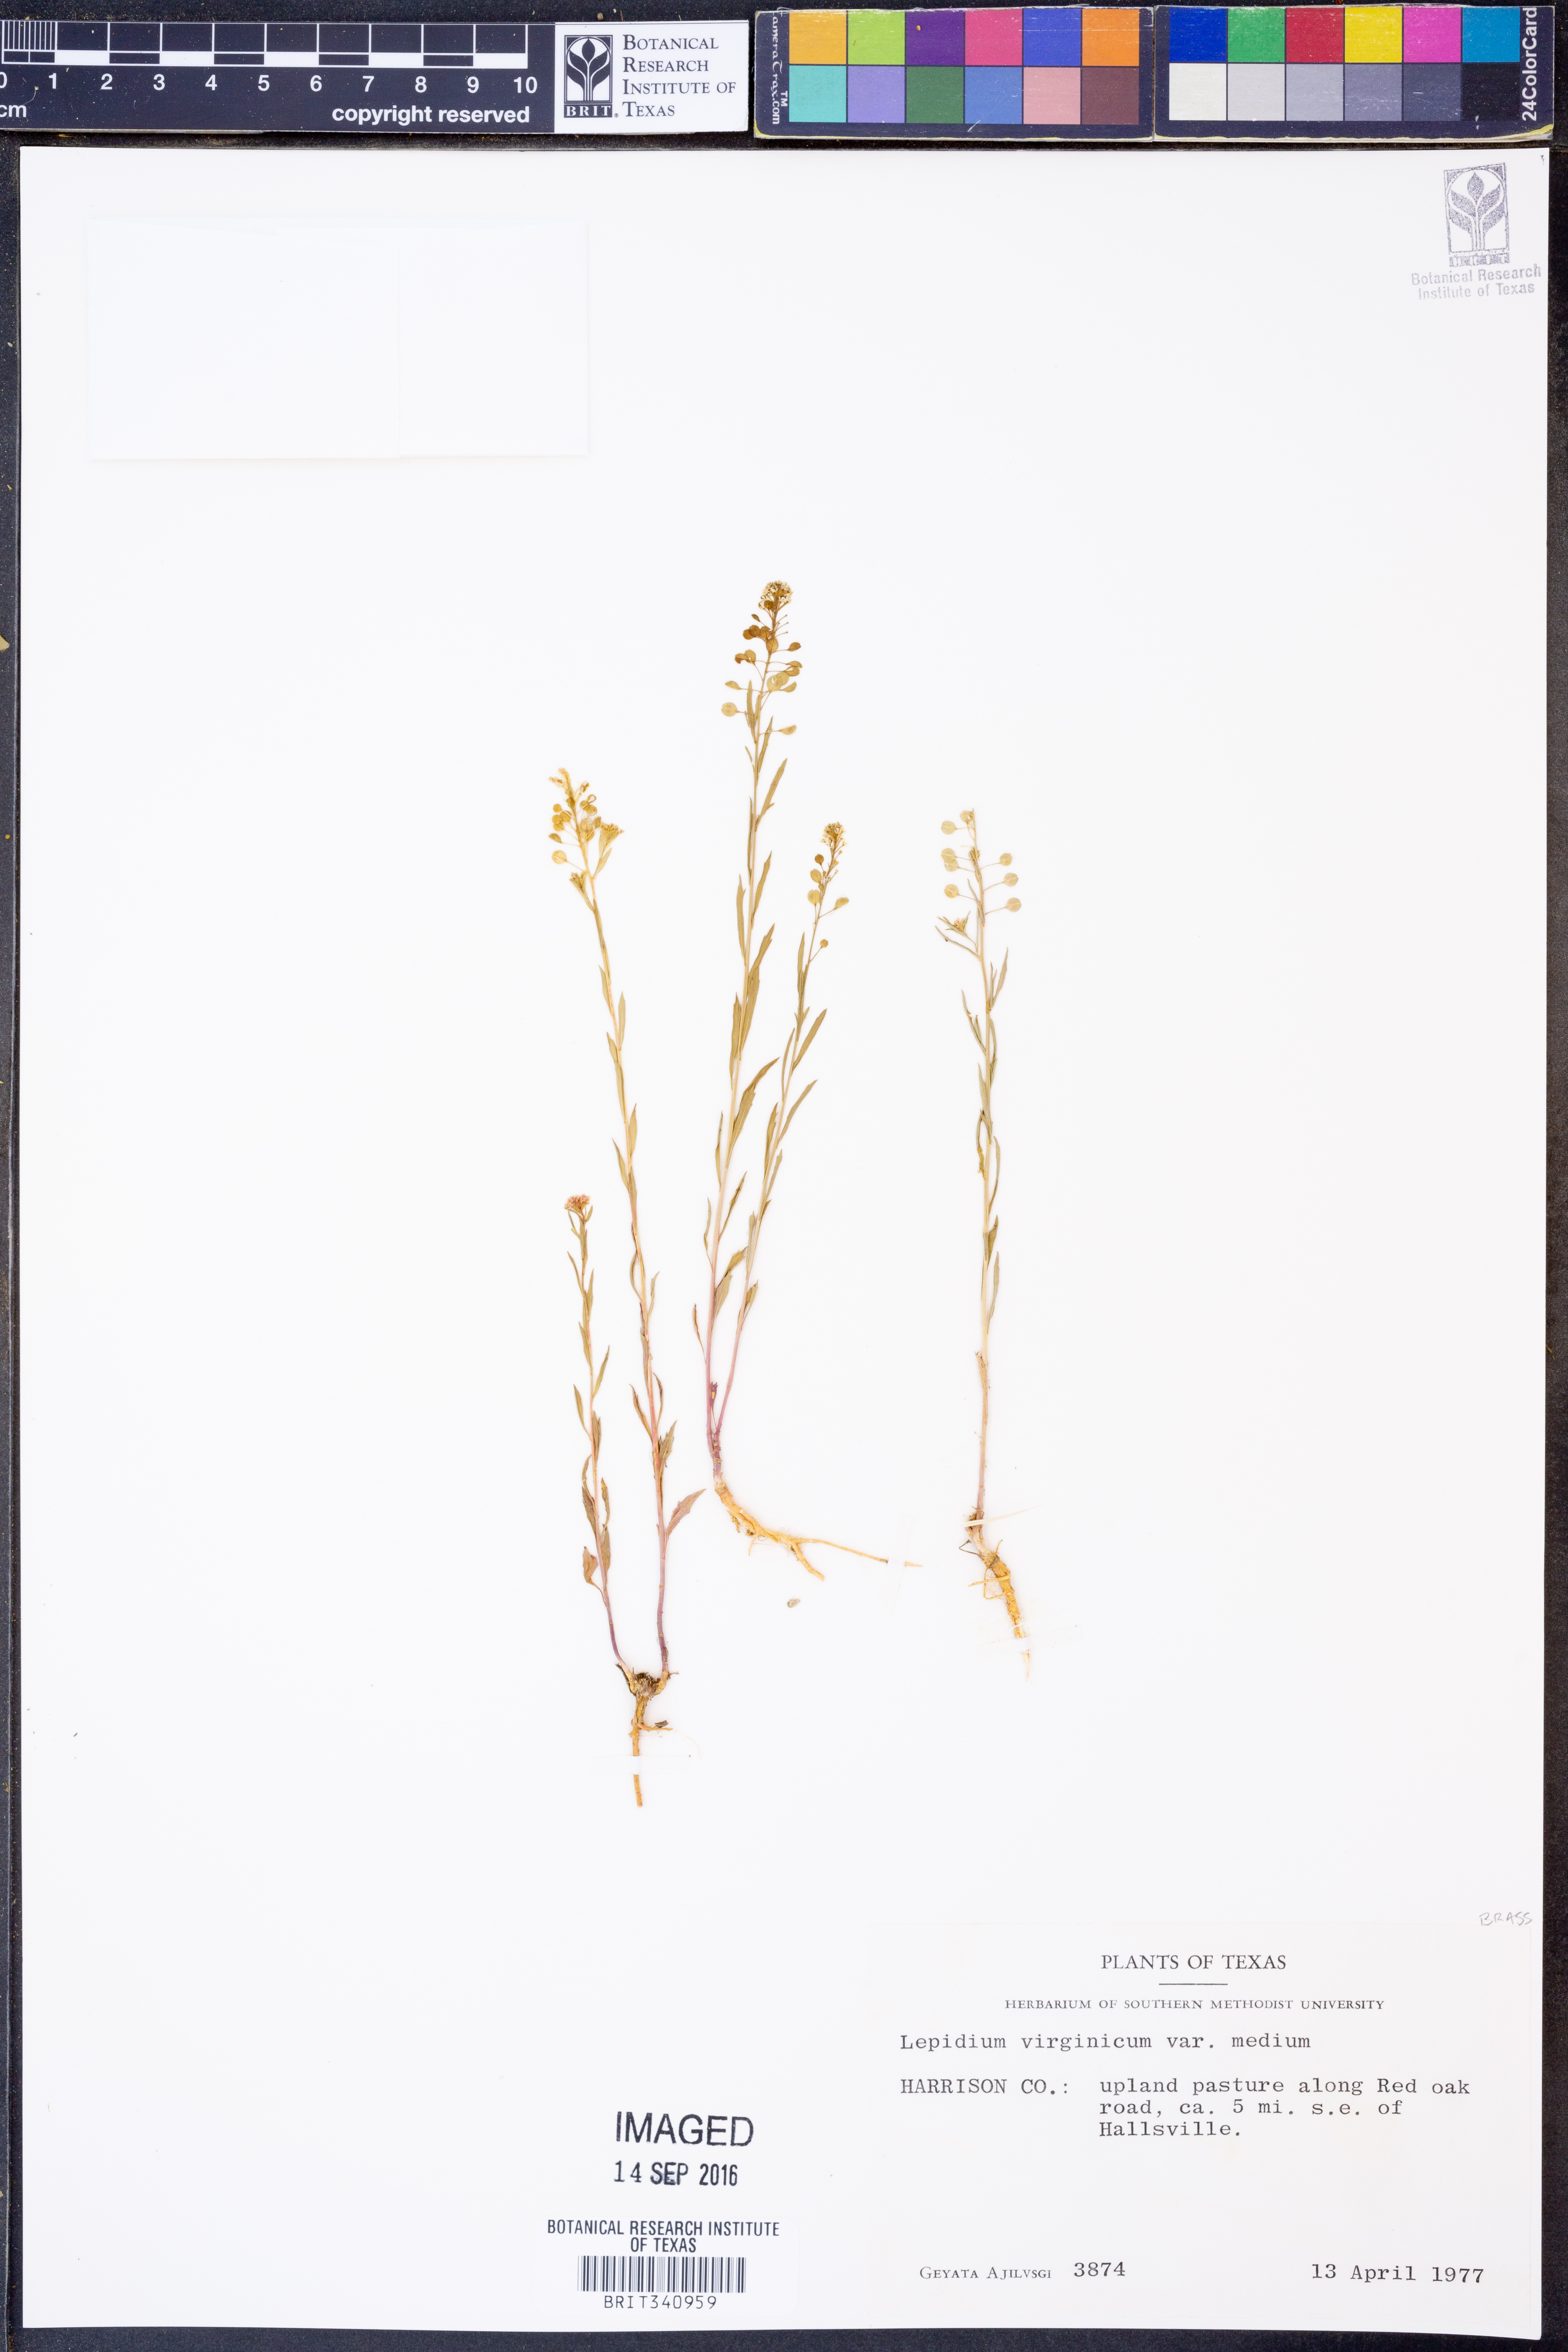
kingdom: Plantae
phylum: Tracheophyta
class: Magnoliopsida
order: Brassicales
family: Brassicaceae
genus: Lepidium
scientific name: Lepidium virginicum
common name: Least pepperwort
